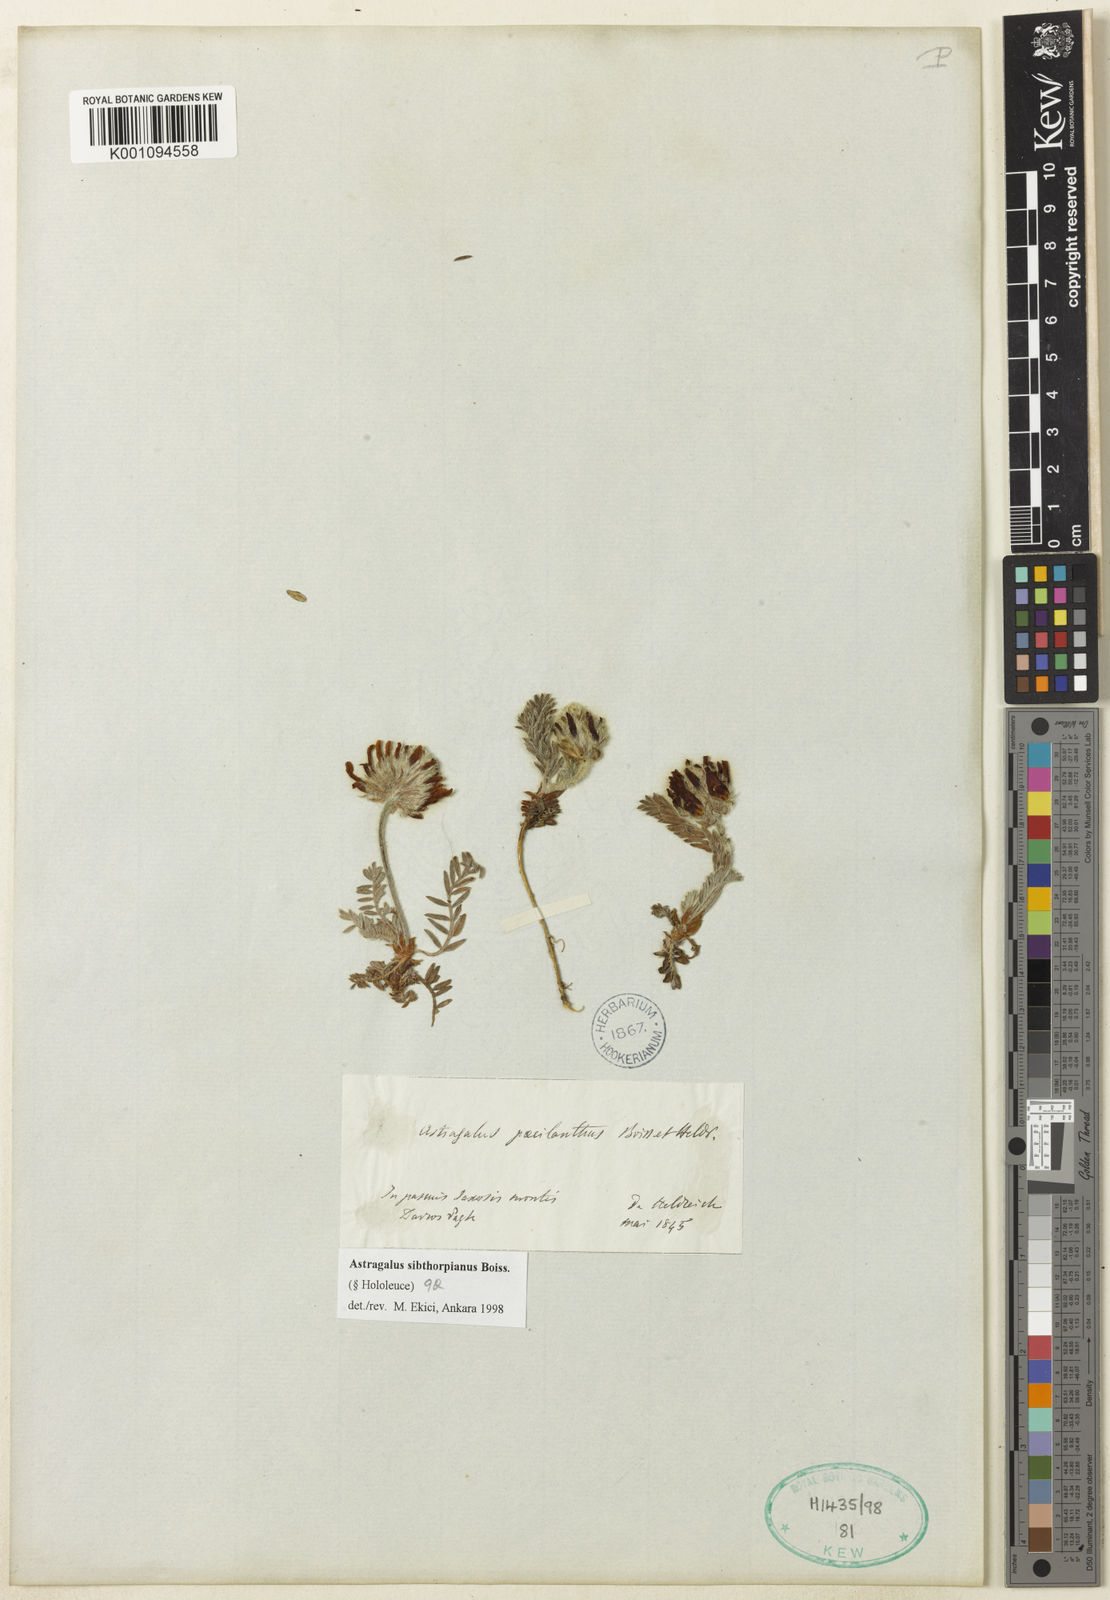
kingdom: Plantae
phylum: Tracheophyta
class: Magnoliopsida
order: Fabales
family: Fabaceae
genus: Astragalus
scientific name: Astragalus
